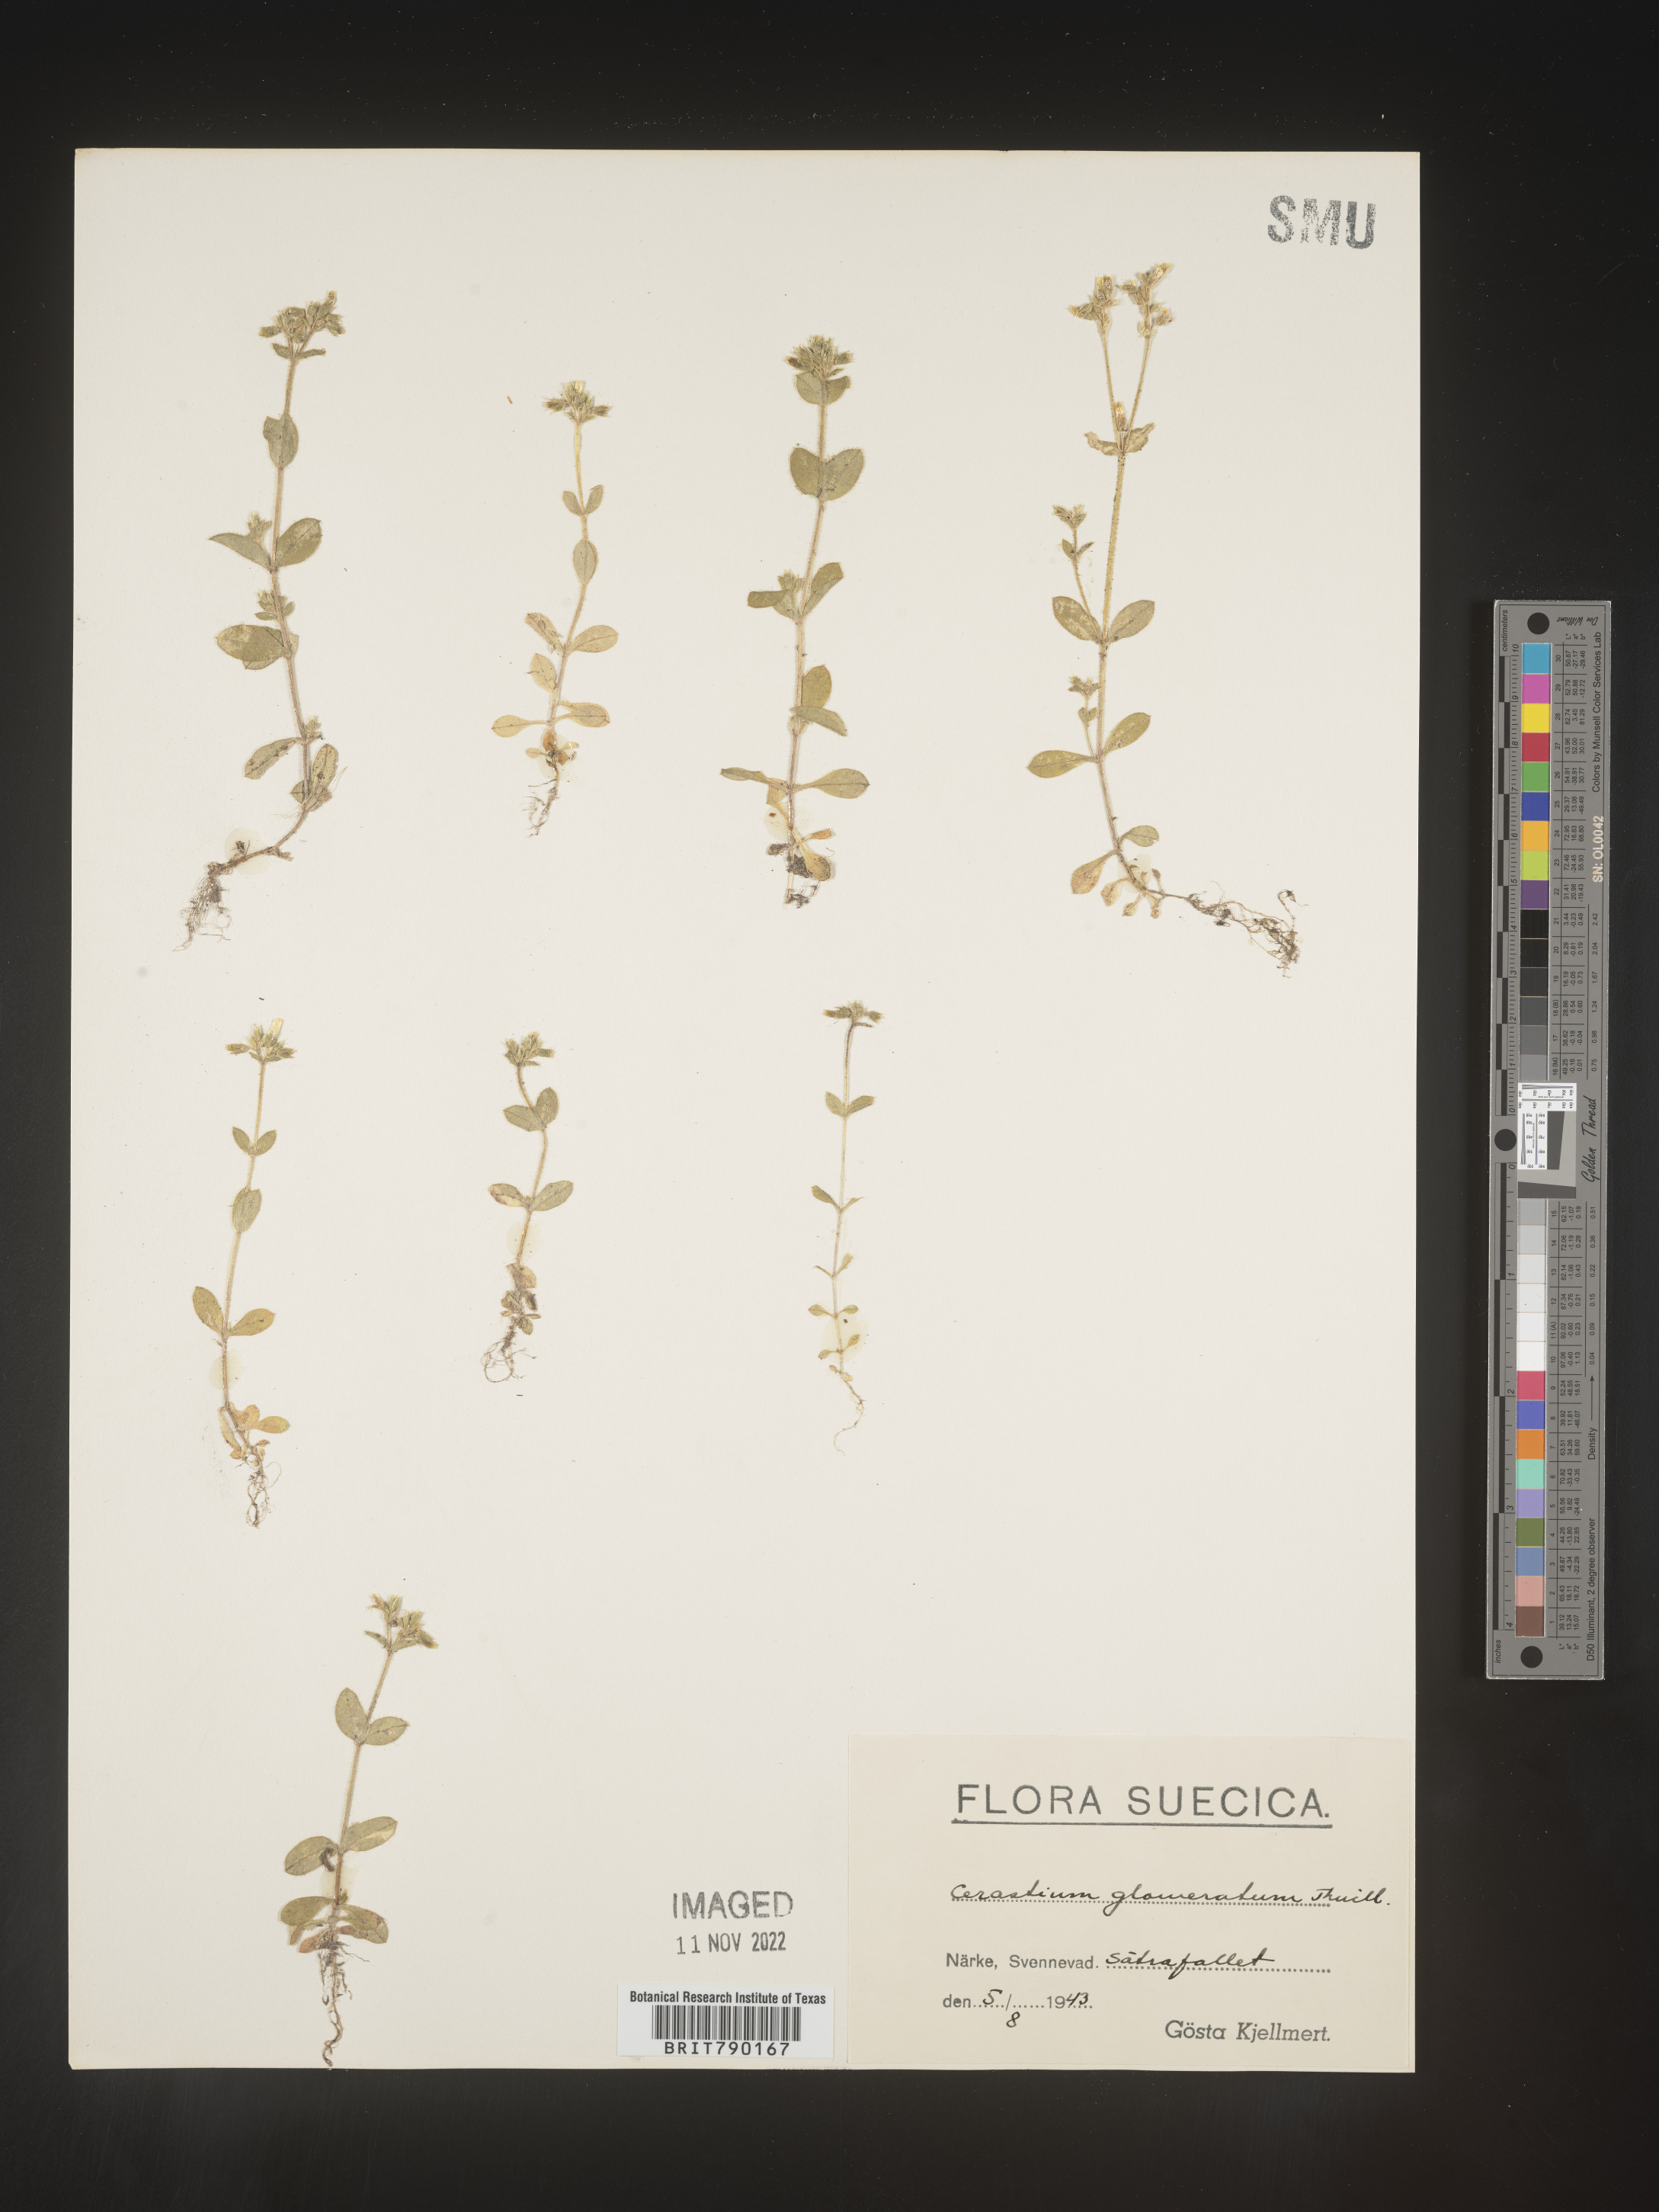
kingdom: Plantae
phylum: Tracheophyta
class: Magnoliopsida
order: Caryophyllales
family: Caryophyllaceae
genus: Cerastium
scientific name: Cerastium
